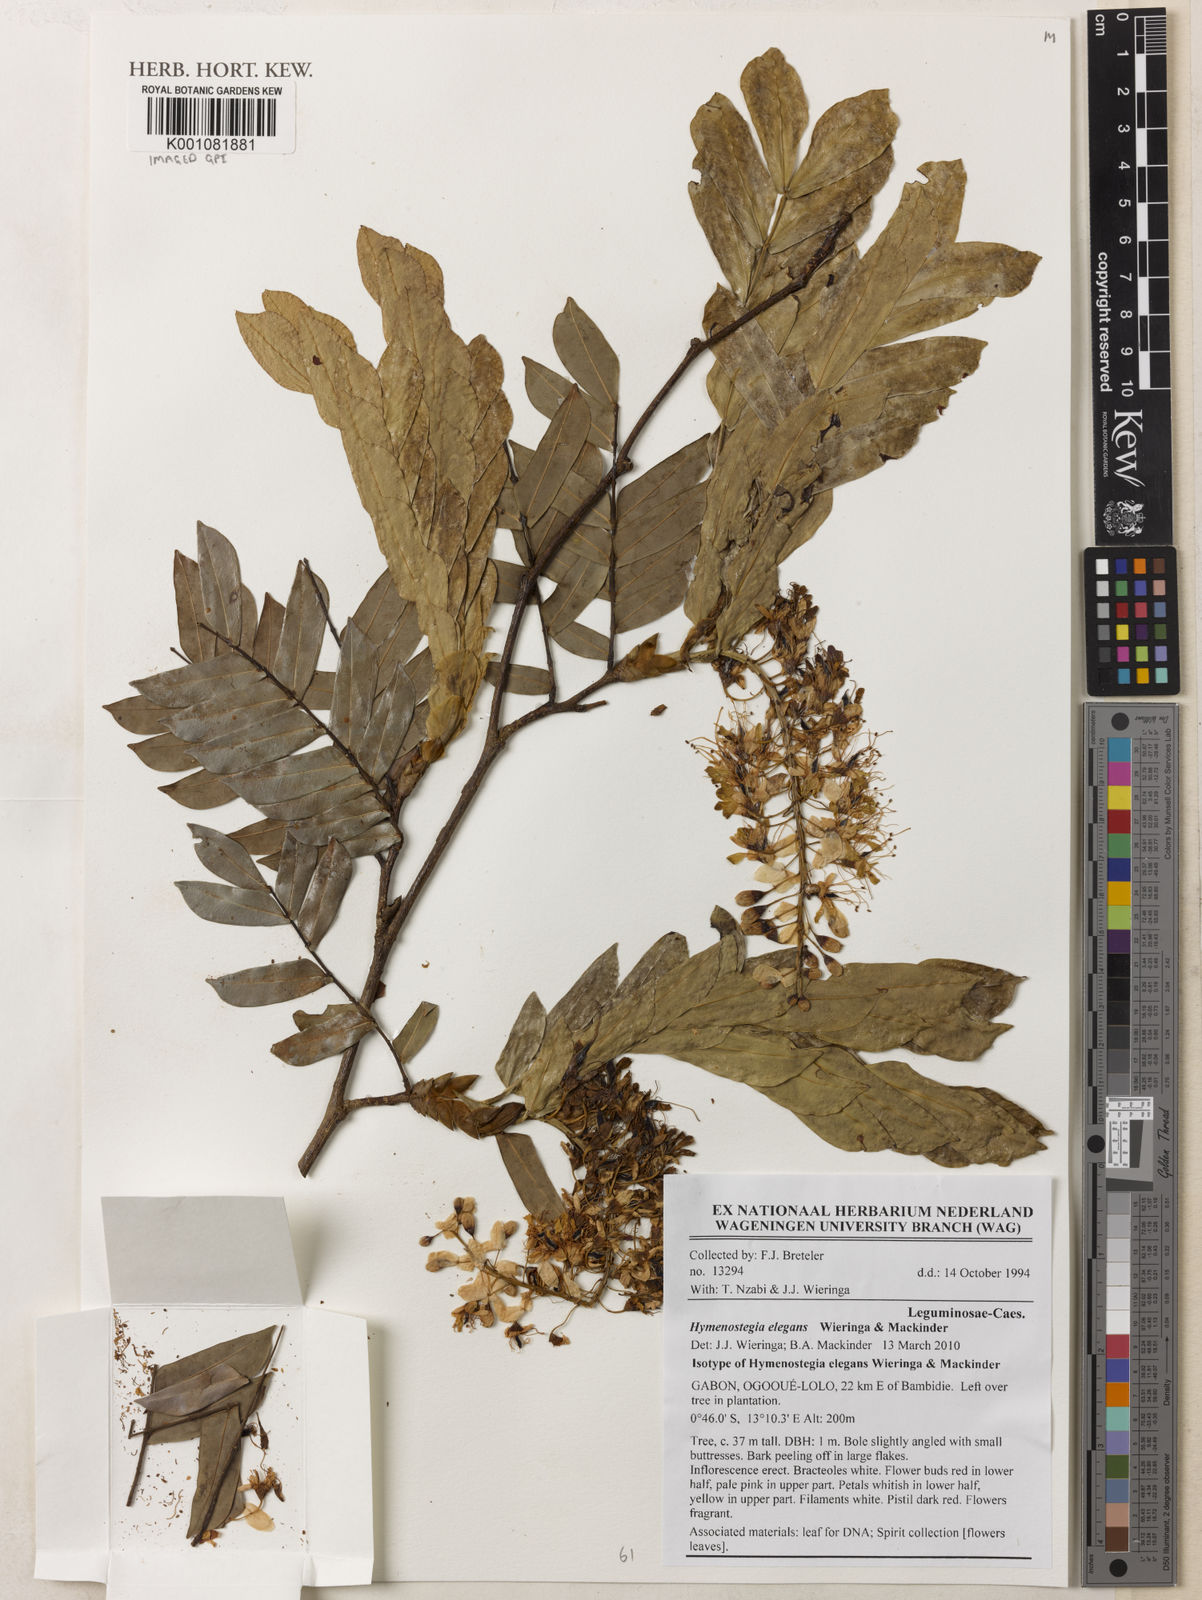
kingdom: Plantae
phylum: Tracheophyta
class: Magnoliopsida
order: Fabales
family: Fabaceae
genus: Hymenostegia
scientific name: Hymenostegia elegans
